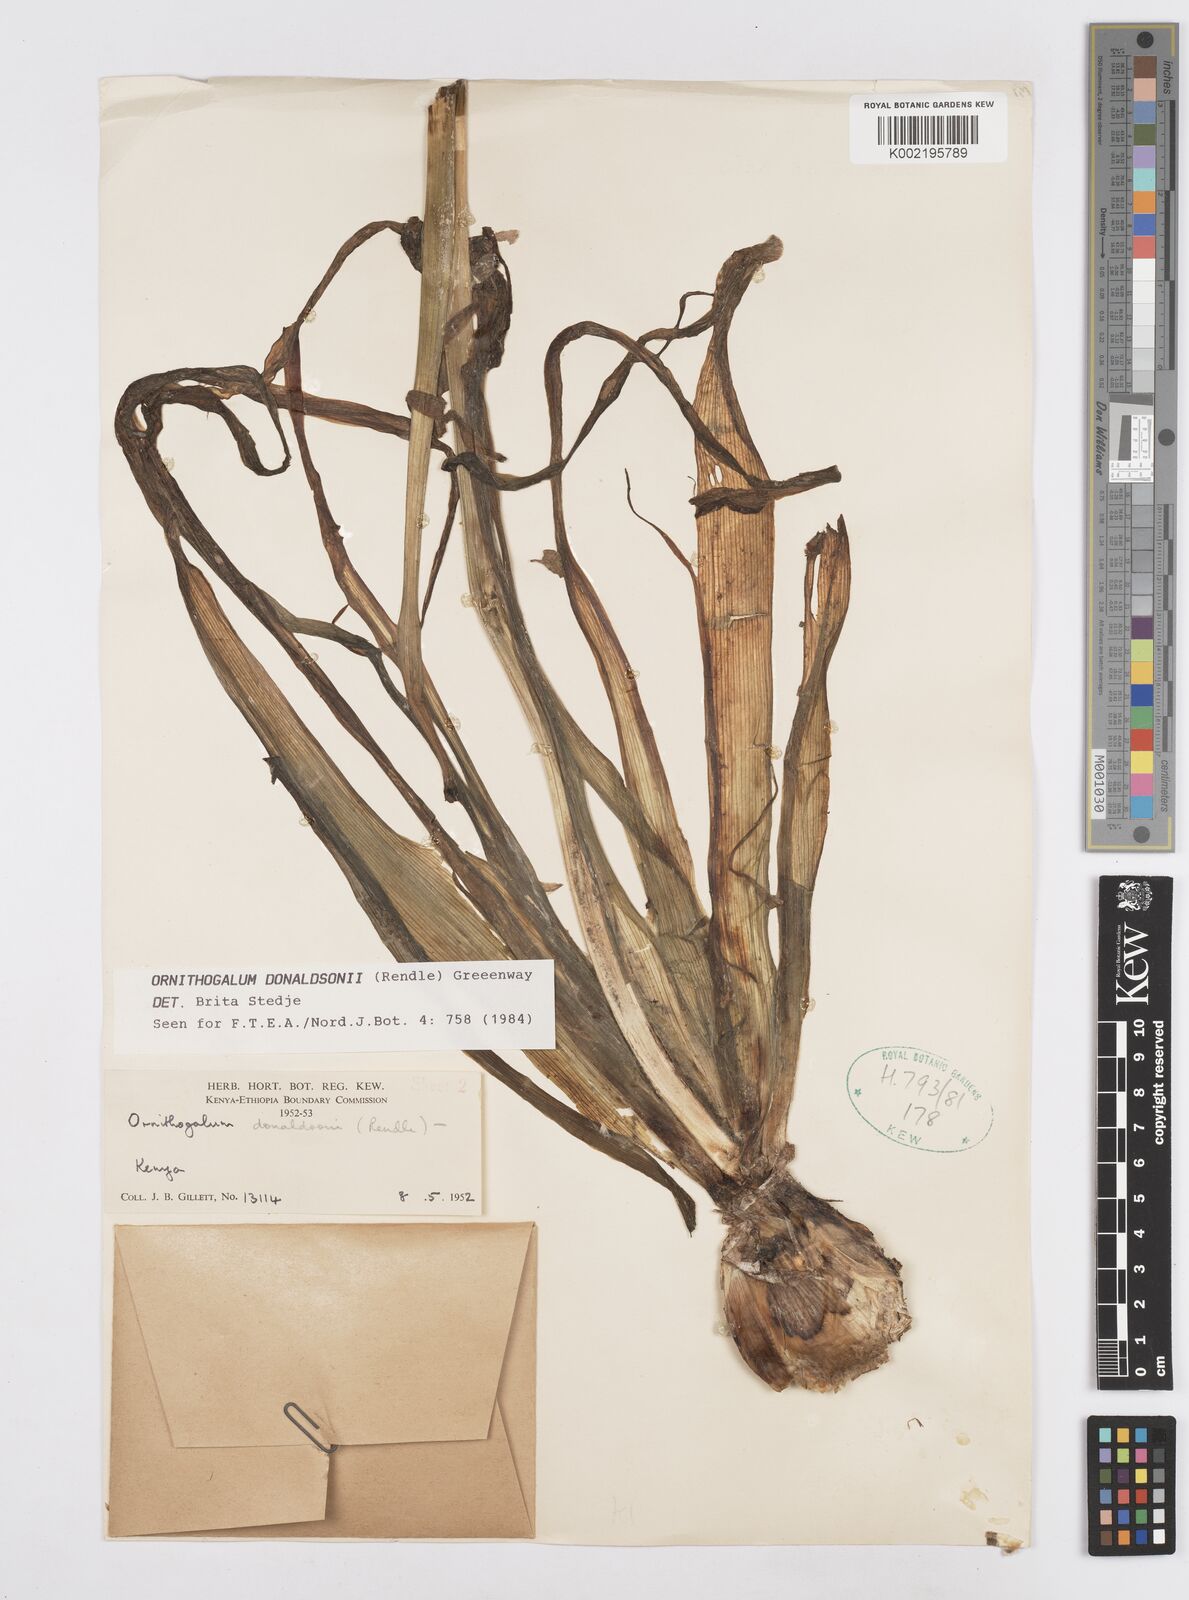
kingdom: Plantae
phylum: Tracheophyta
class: Liliopsida
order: Asparagales
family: Asparagaceae
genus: Albuca
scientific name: Albuca donaldsonii
